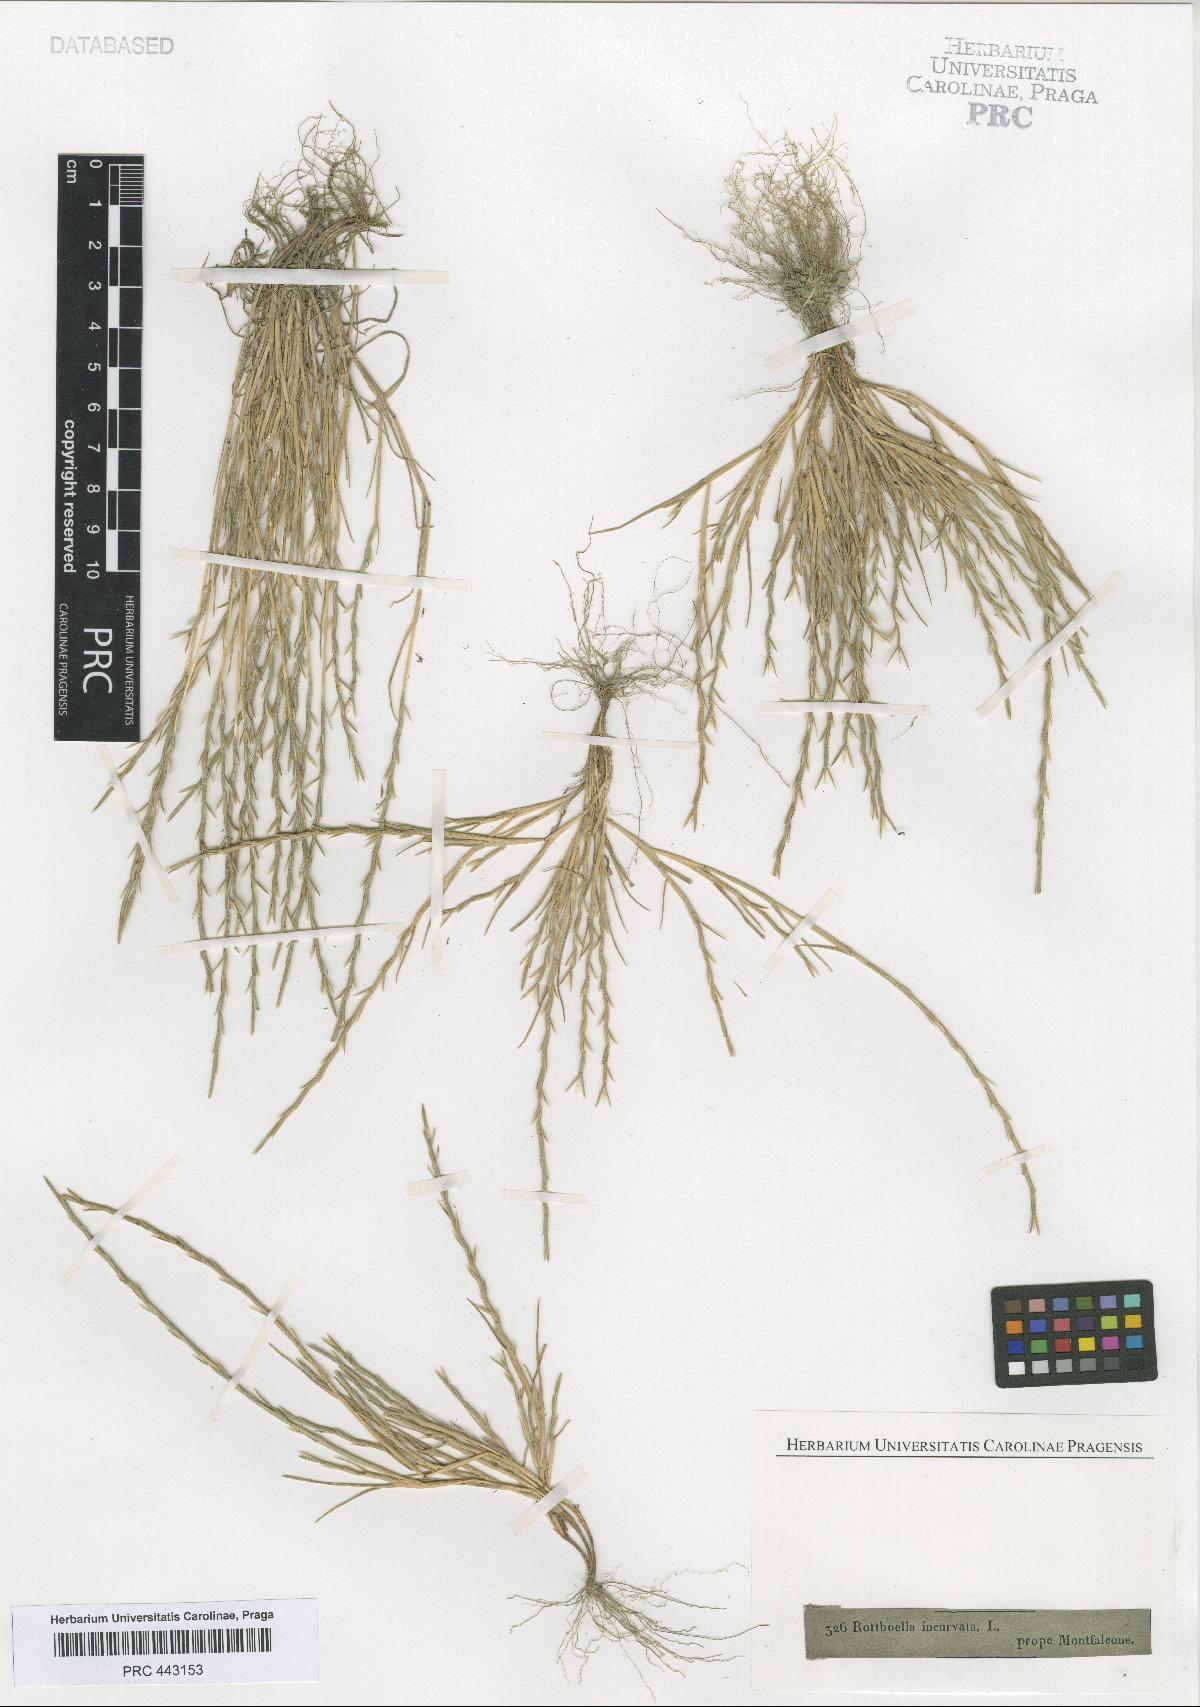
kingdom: Plantae
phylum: Tracheophyta
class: Liliopsida
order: Poales
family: Poaceae
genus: Parapholis
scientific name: Parapholis incurva
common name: Curved sicklegrass
